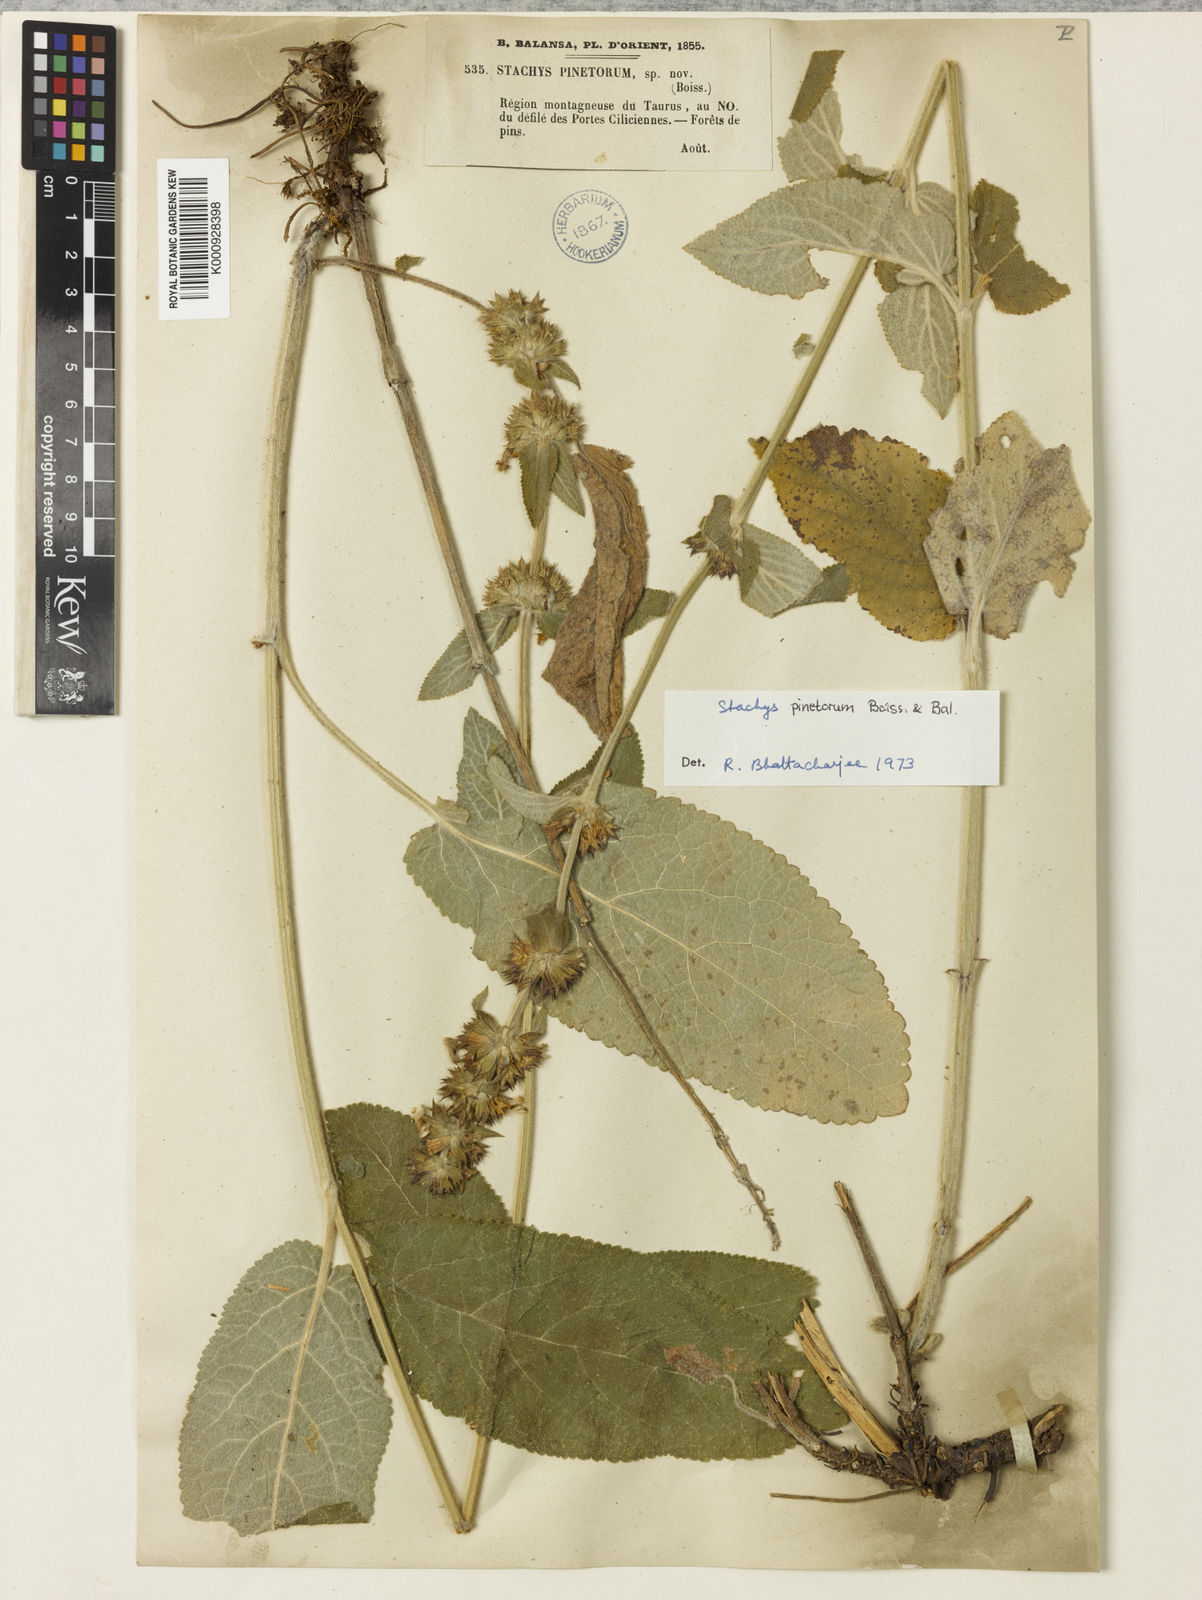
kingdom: Plantae
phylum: Tracheophyta
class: Magnoliopsida
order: Lamiales
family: Lamiaceae
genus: Stachys
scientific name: Stachys pinetorum
